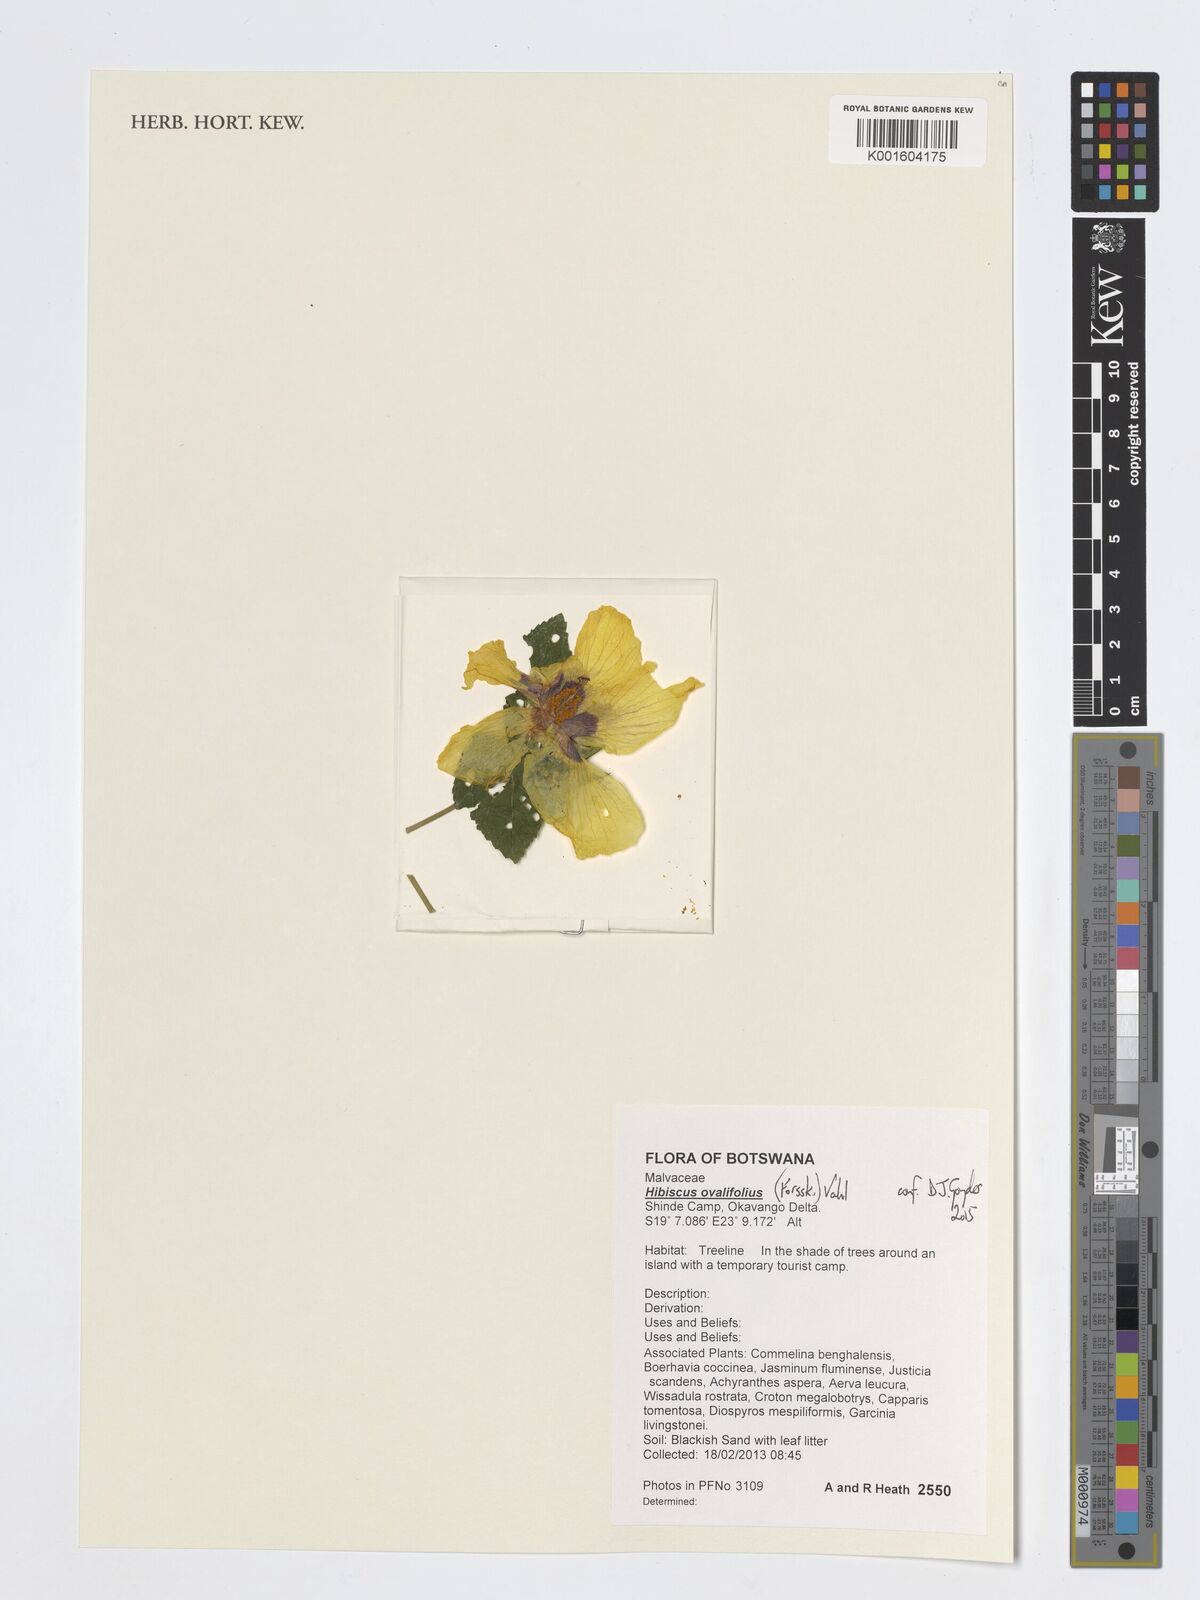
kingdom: Plantae
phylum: Tracheophyta
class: Magnoliopsida
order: Malvales
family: Malvaceae
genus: Hibiscus
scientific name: Hibiscus ovalifolius
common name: Rosemallow
